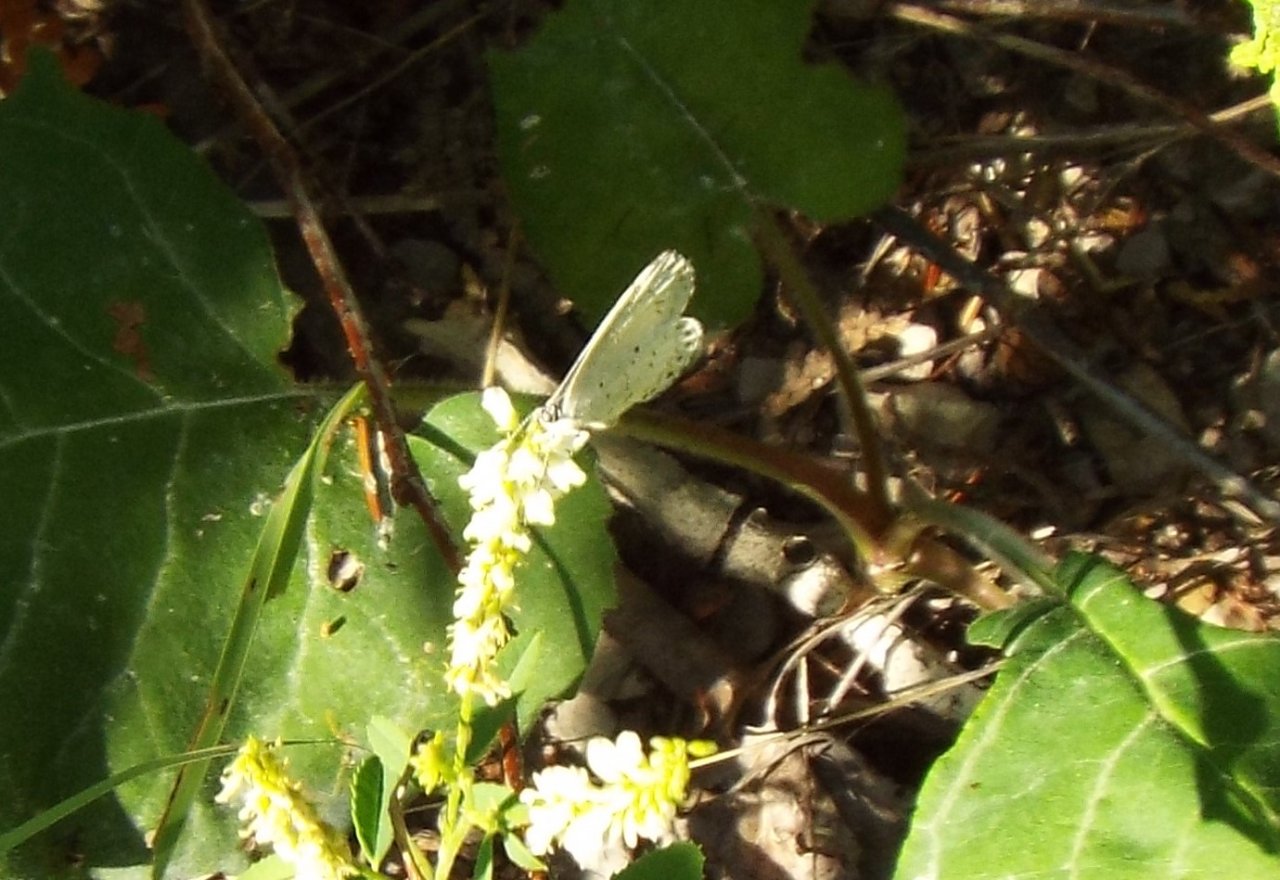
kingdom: Animalia
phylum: Arthropoda
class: Insecta
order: Lepidoptera
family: Lycaenidae
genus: Celastrina
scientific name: Celastrina lucia
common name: Northern Spring Azure
